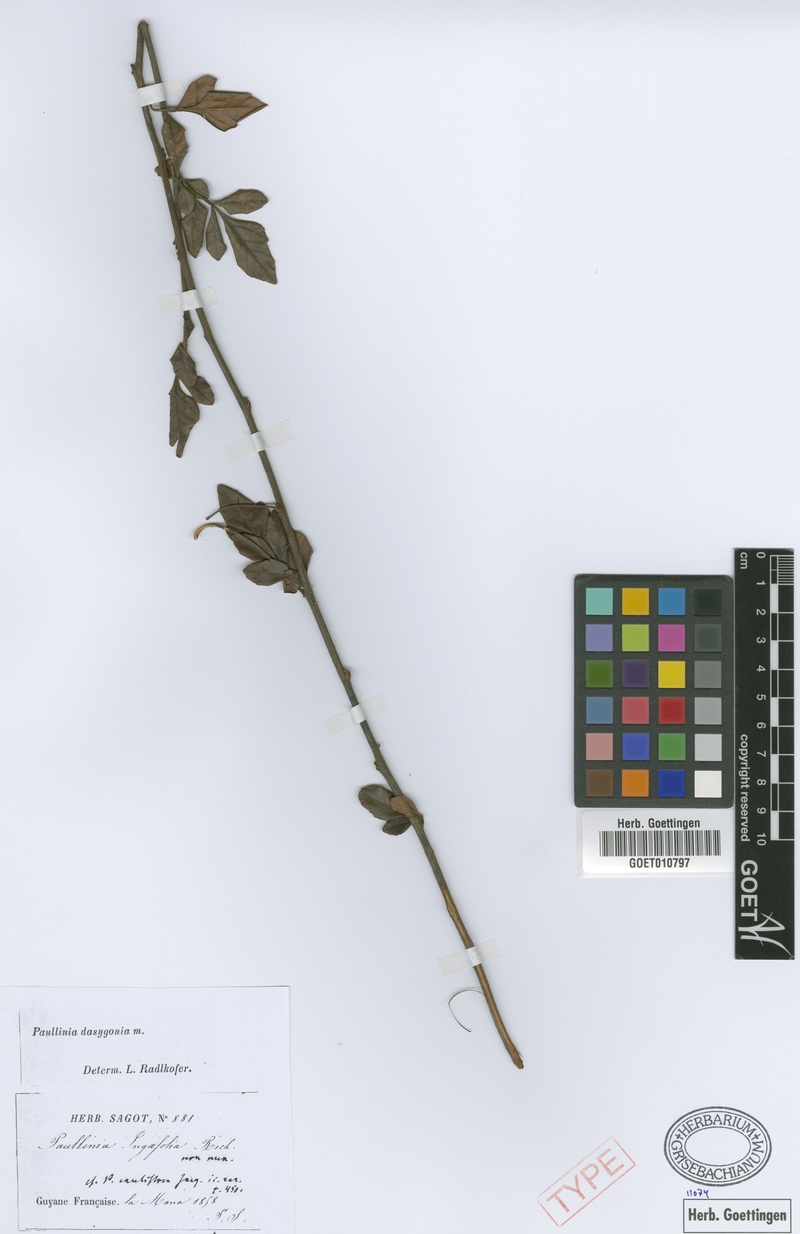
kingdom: Plantae
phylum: Tracheophyta
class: Magnoliopsida
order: Sapindales
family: Sapindaceae
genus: Paullinia
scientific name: Paullinia dasygonia
